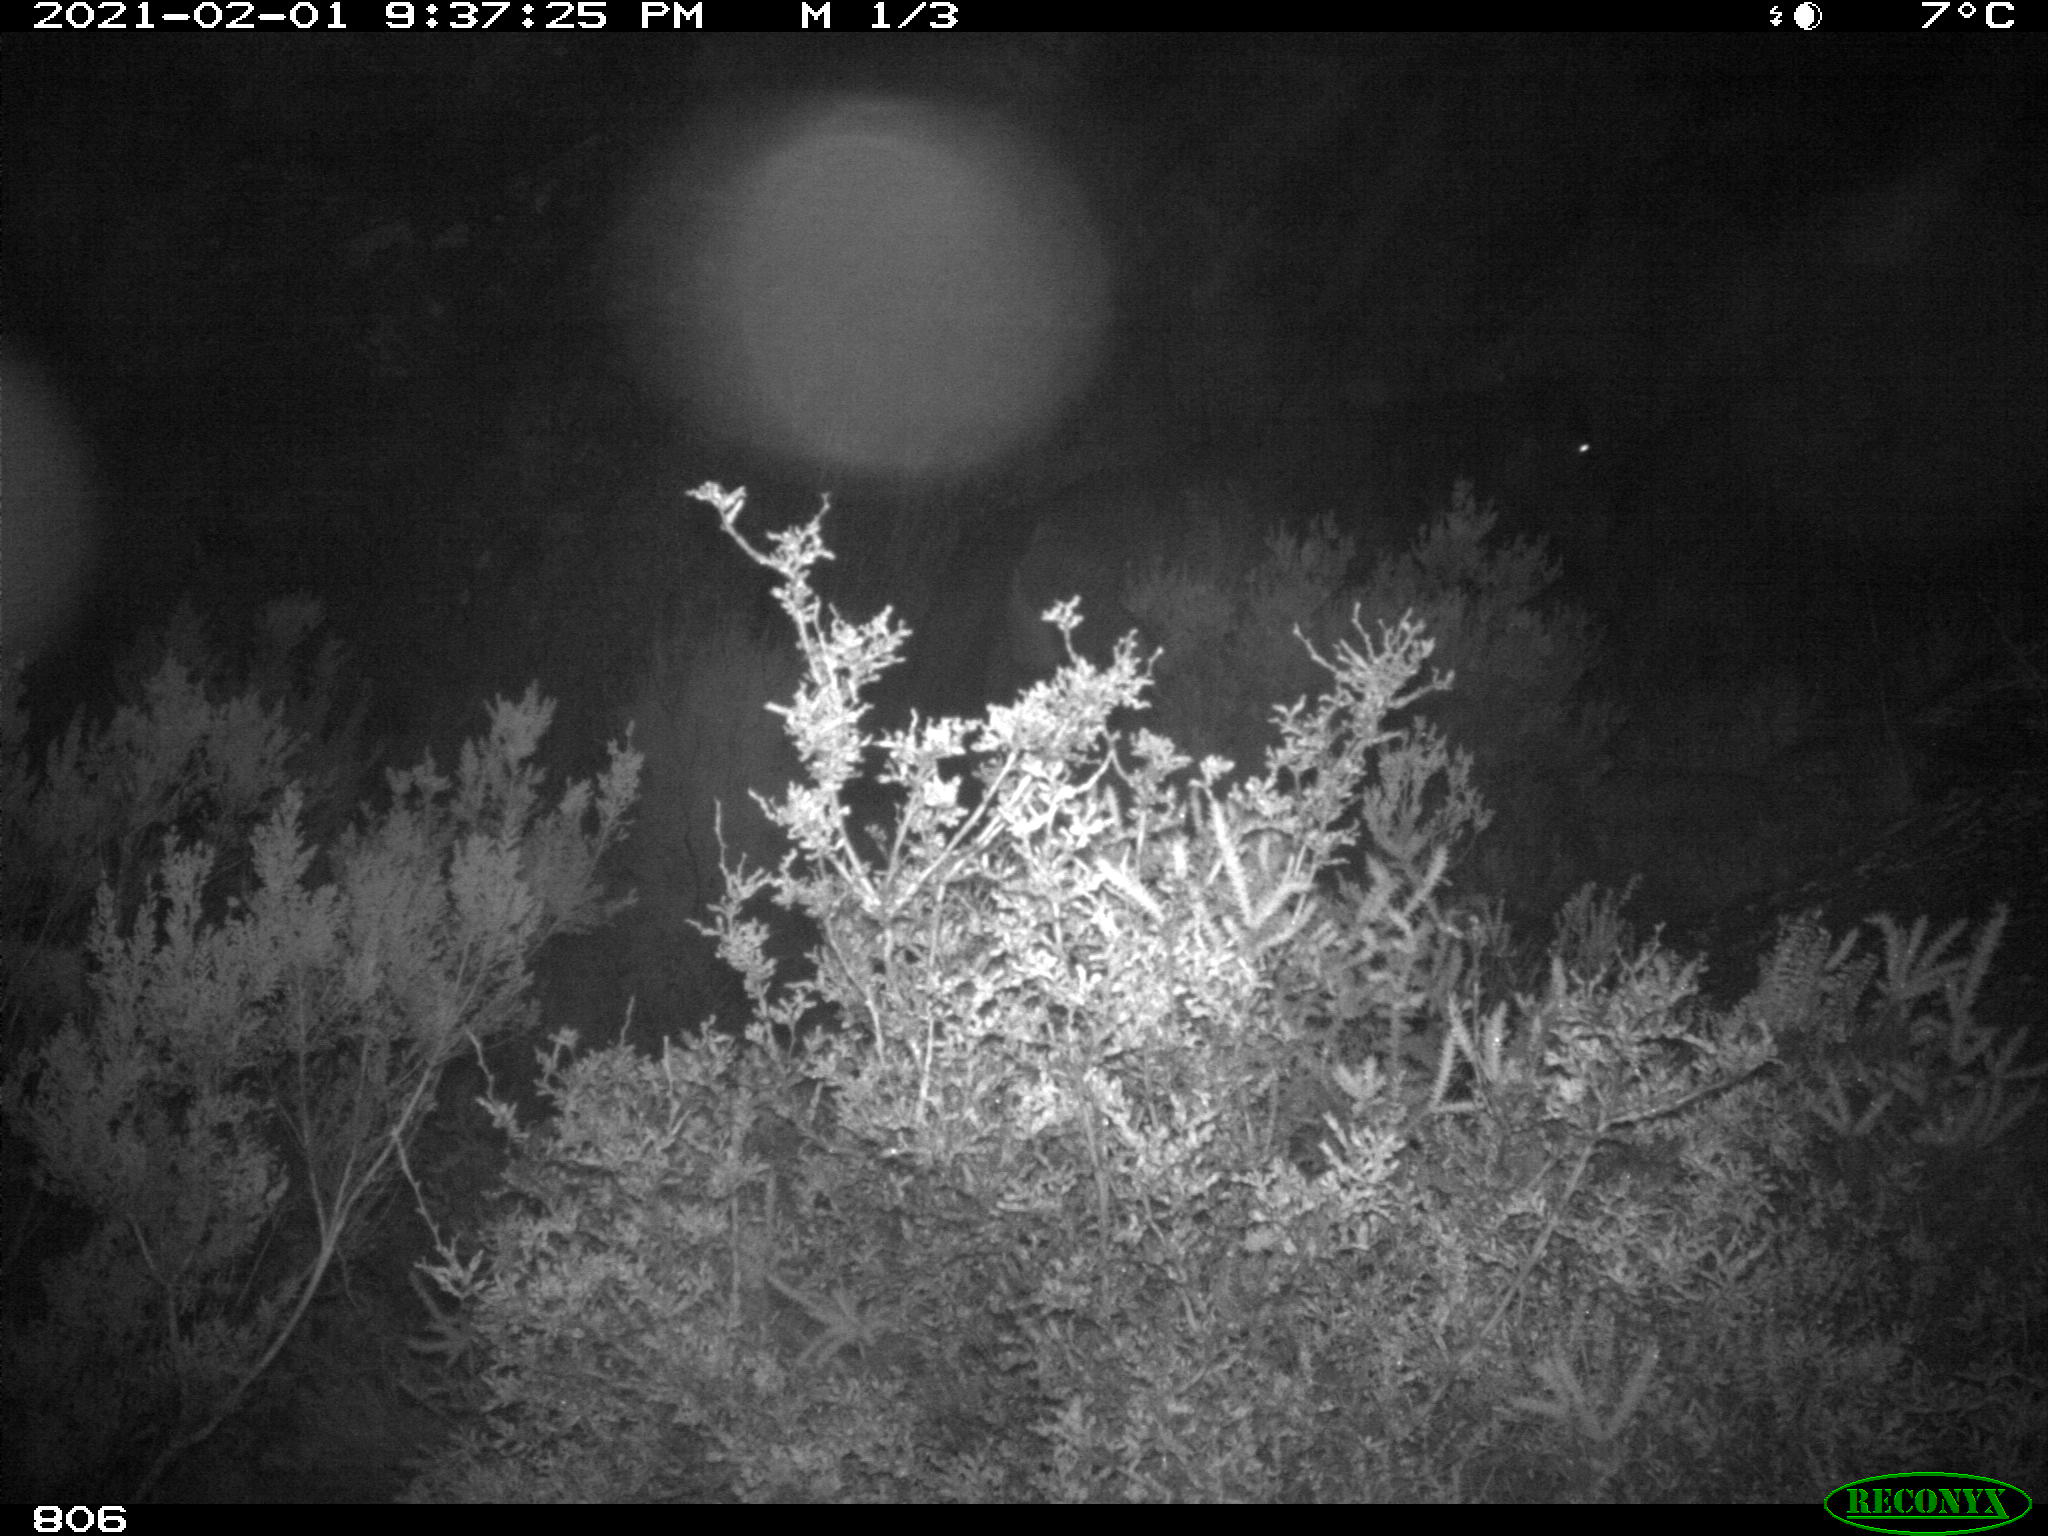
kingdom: Animalia
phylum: Chordata
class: Mammalia
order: Perissodactyla
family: Equidae
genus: Equus
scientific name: Equus caballus
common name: Horse
